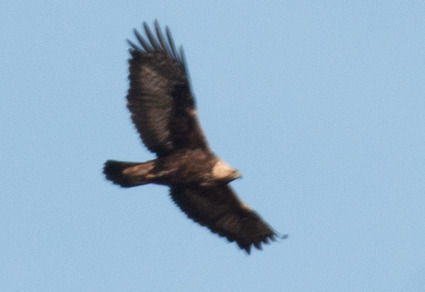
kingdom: Animalia
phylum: Chordata
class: Aves
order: Accipitriformes
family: Accipitridae
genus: Aquila
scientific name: Aquila chrysaetos
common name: Kongeørn
